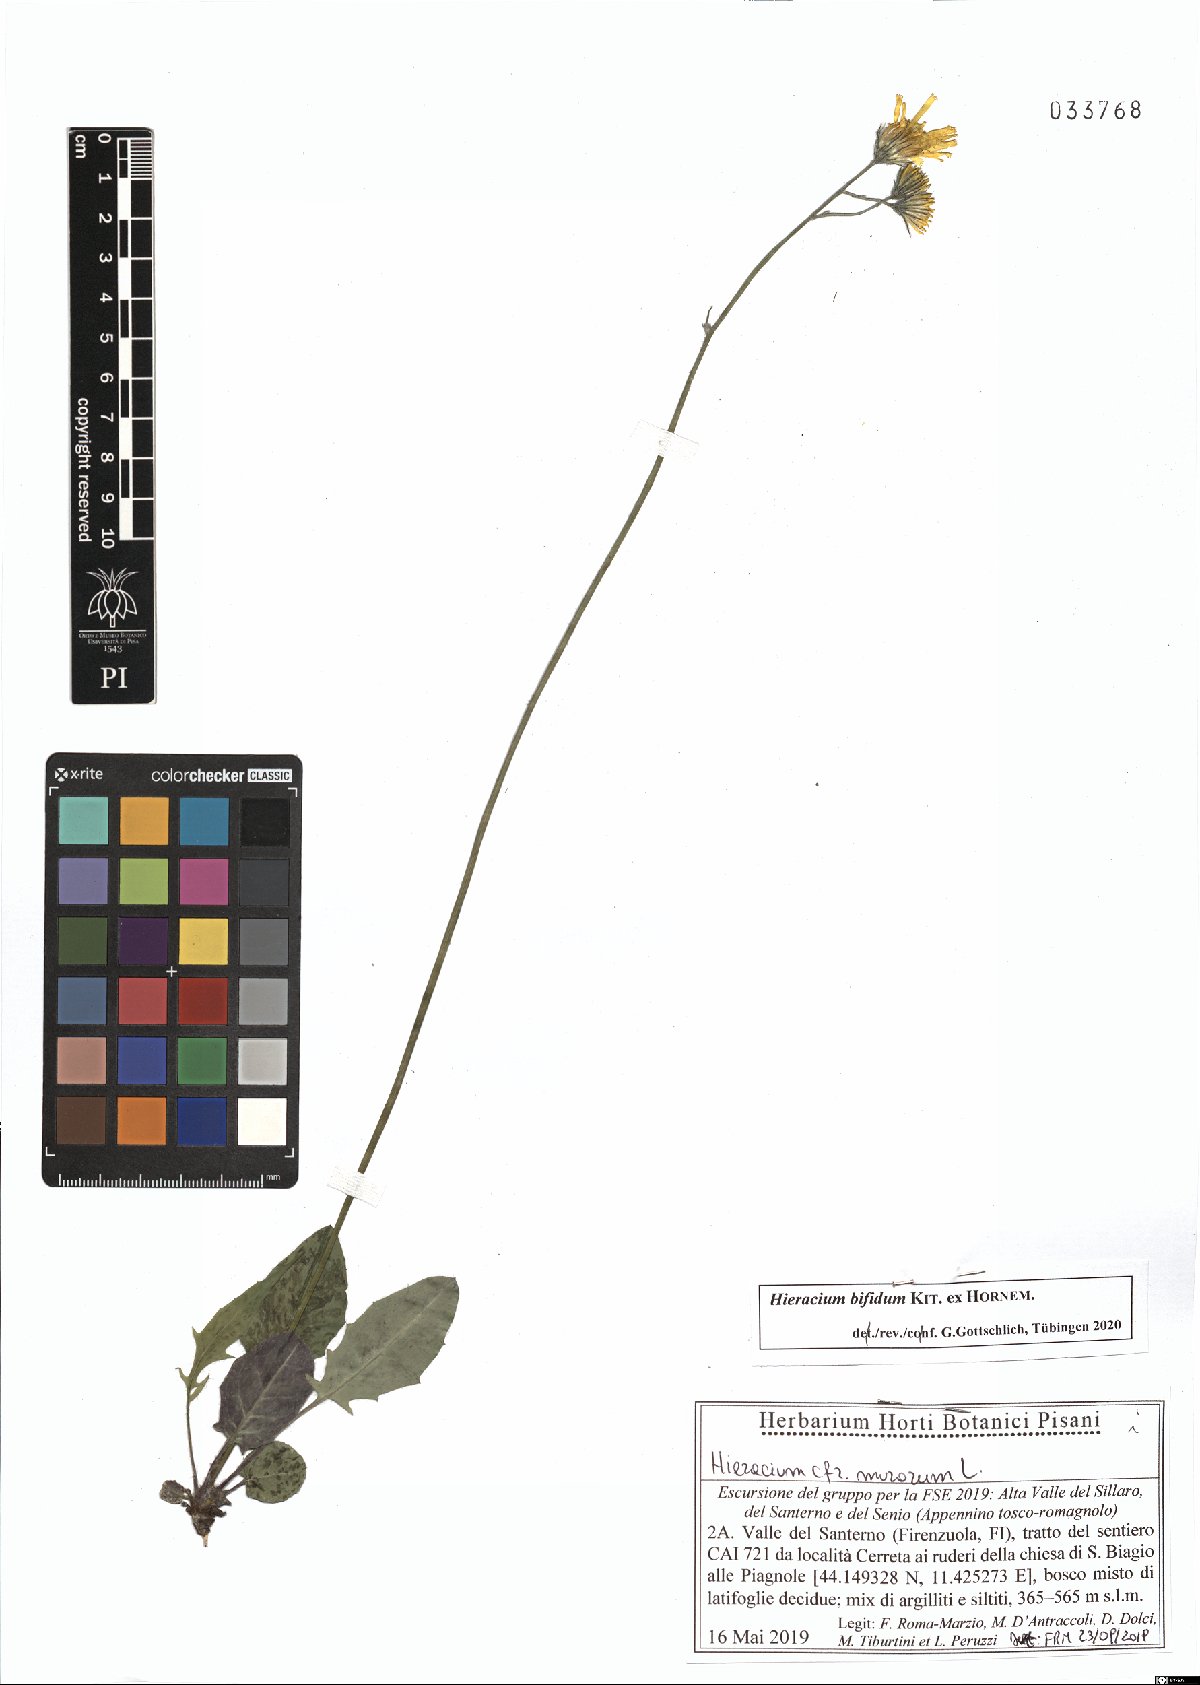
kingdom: Plantae
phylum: Tracheophyta
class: Magnoliopsida
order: Asterales
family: Asteraceae
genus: Hieracium
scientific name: Hieracium bifidum
